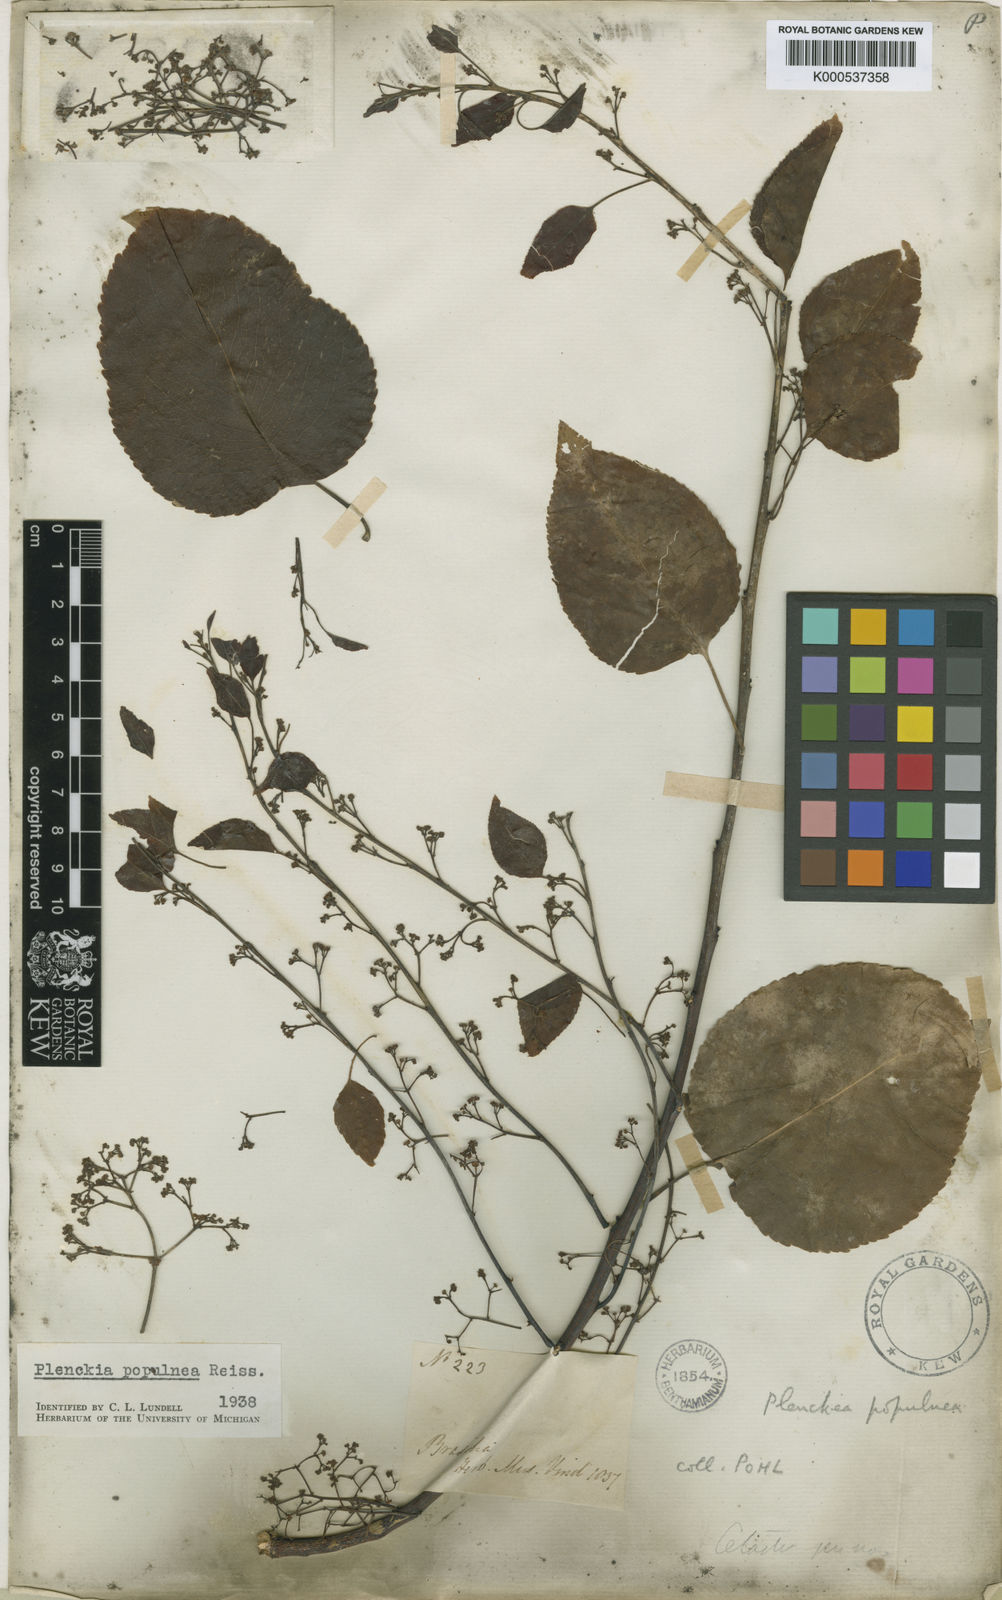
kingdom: Plantae
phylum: Tracheophyta
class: Magnoliopsida
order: Celastrales
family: Celastraceae
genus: Plenckia
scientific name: Plenckia populnea
